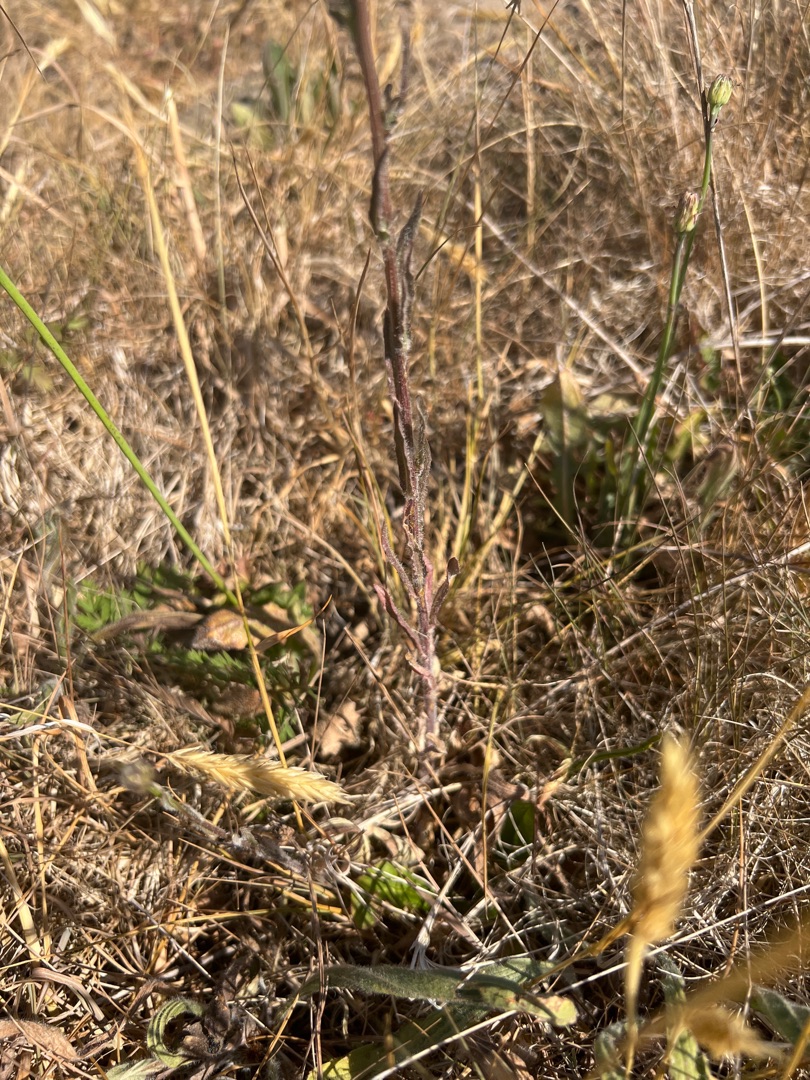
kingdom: Plantae
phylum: Tracheophyta
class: Magnoliopsida
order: Asterales
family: Campanulaceae
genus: Jasione
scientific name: Jasione montana
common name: Blåmunke
